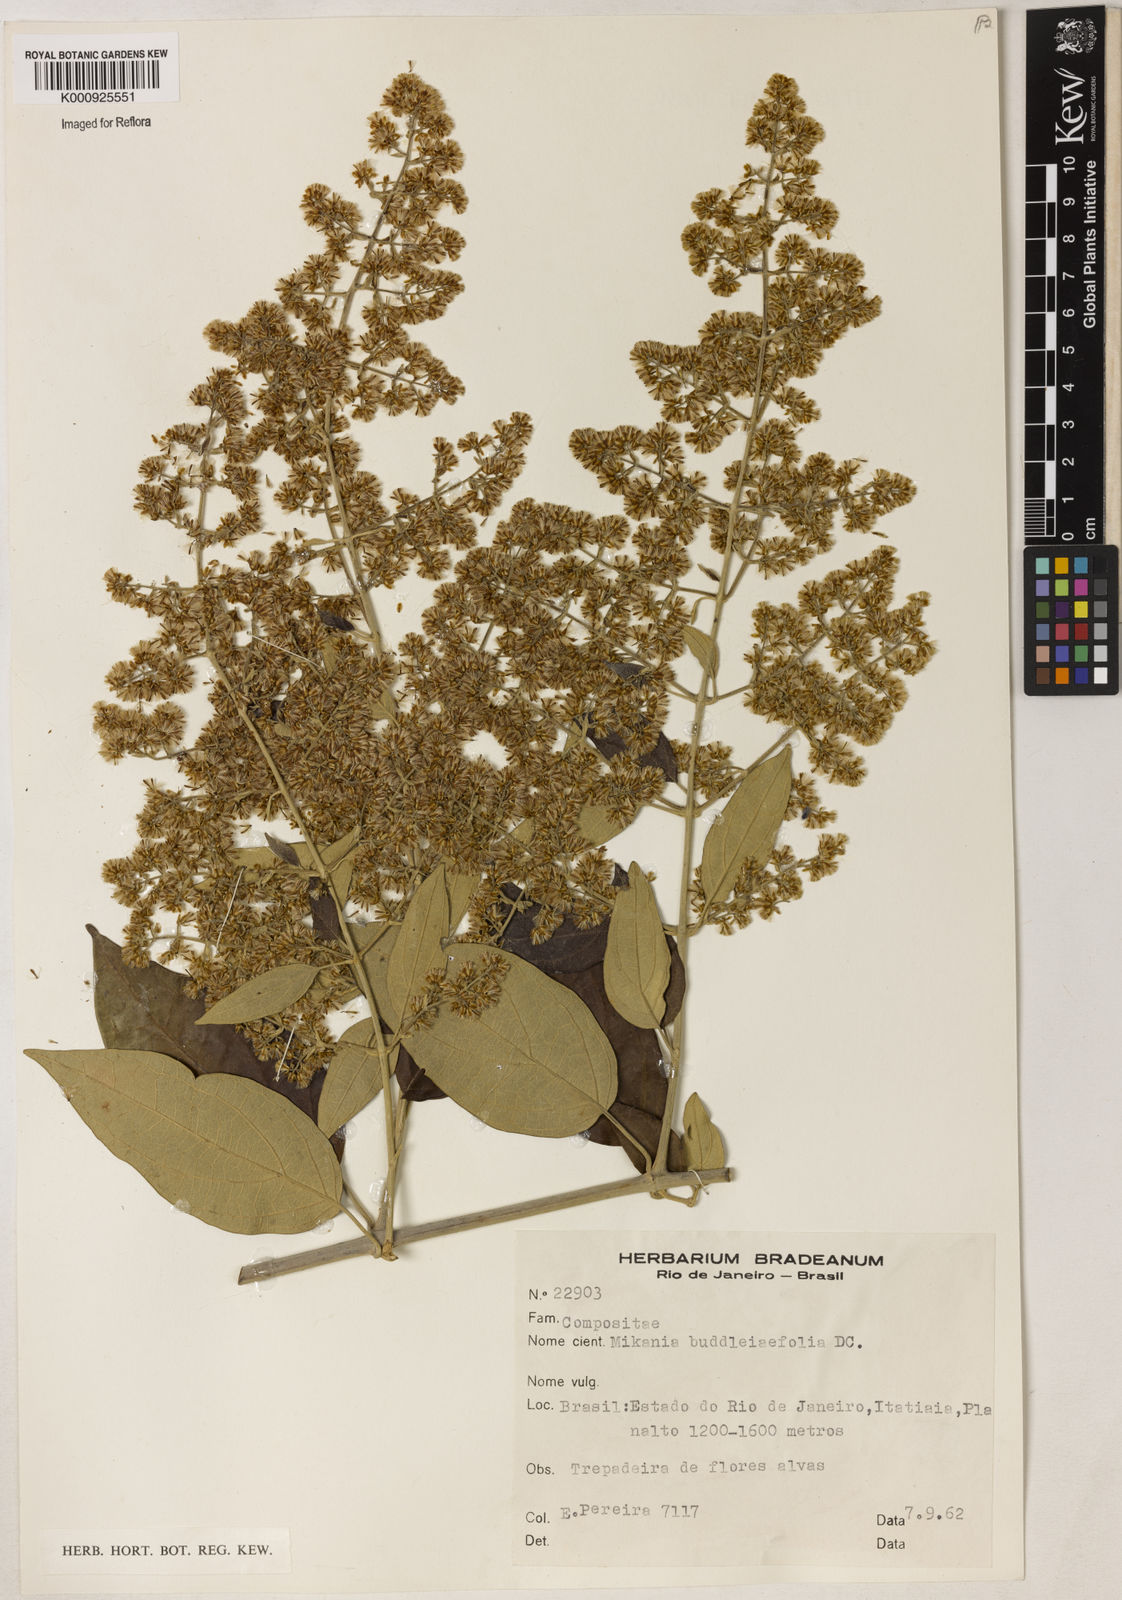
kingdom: Plantae
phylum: Tracheophyta
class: Magnoliopsida
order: Asterales
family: Asteraceae
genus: Mikania
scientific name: Mikania buddlejifolia
